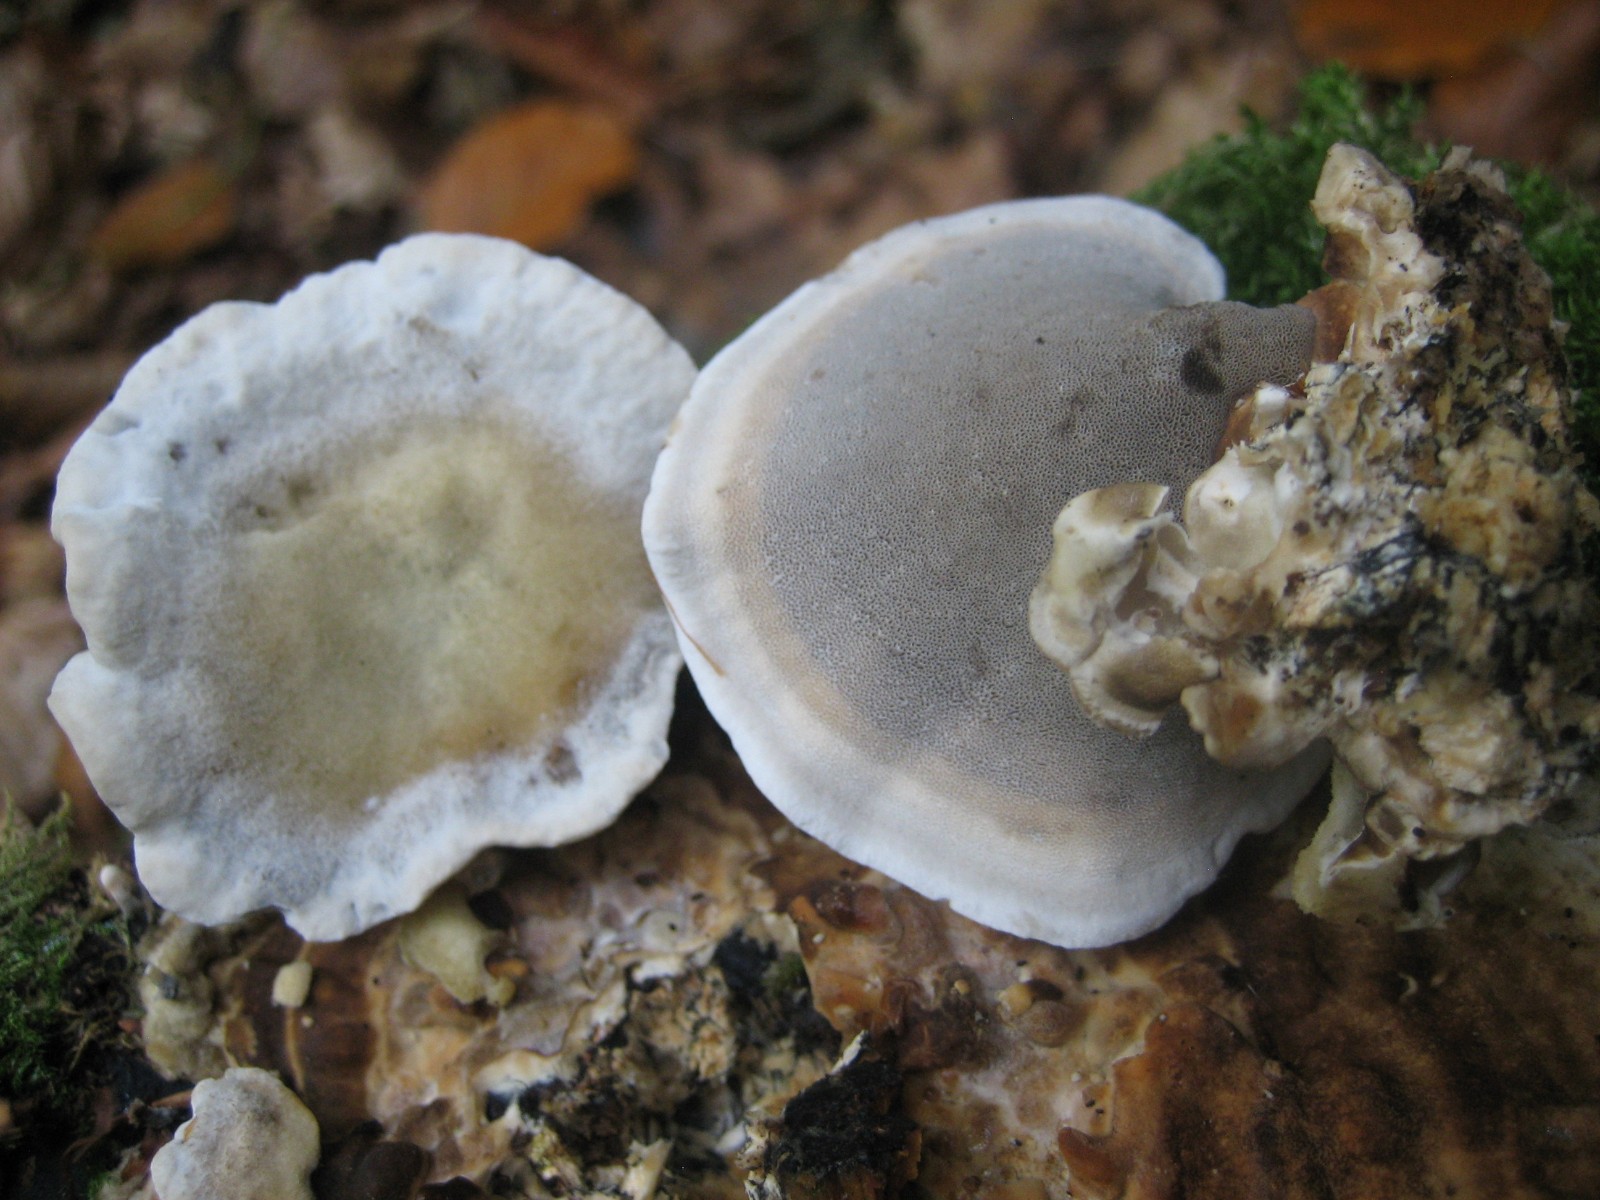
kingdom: Fungi
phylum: Basidiomycota
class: Agaricomycetes
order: Polyporales
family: Phanerochaetaceae
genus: Bjerkandera
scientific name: Bjerkandera adusta
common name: sveden sodporesvamp
